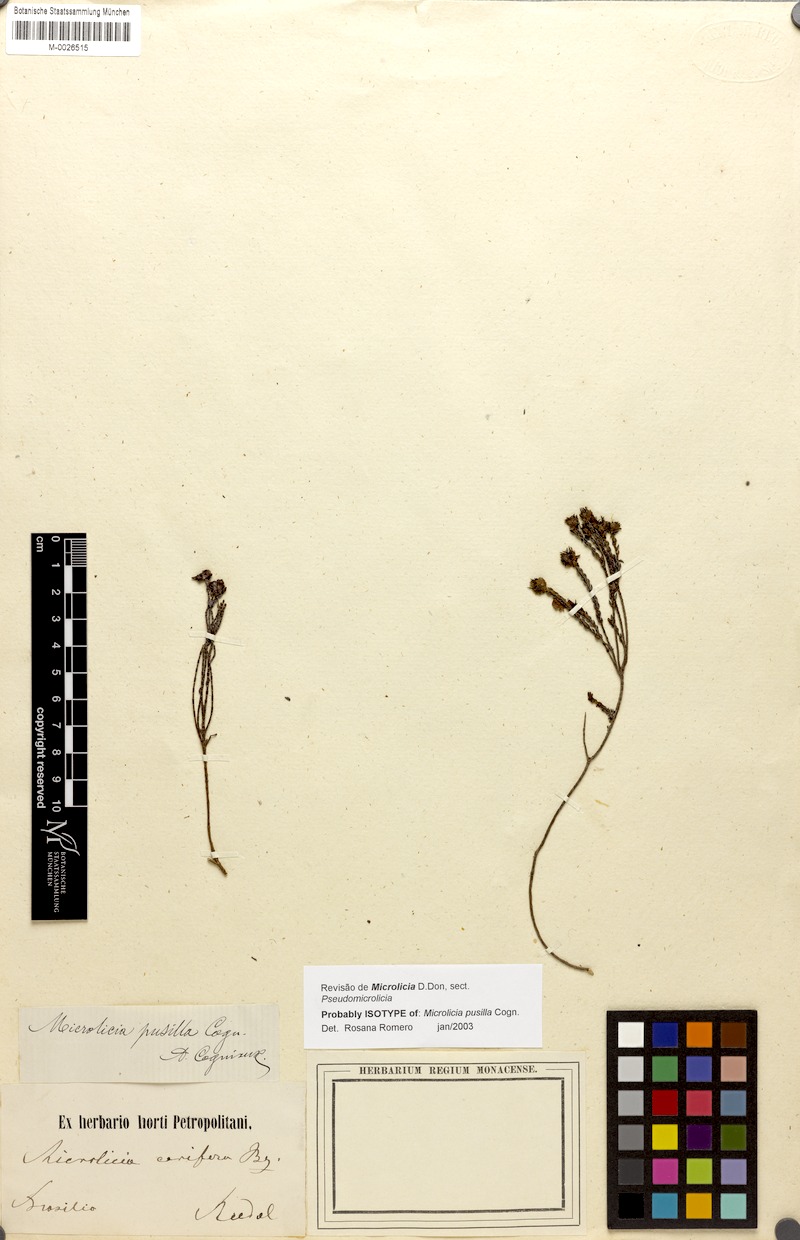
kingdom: Plantae
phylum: Tracheophyta
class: Magnoliopsida
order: Myrtales
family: Melastomataceae
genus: Microlicia
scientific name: Microlicia pusilla
